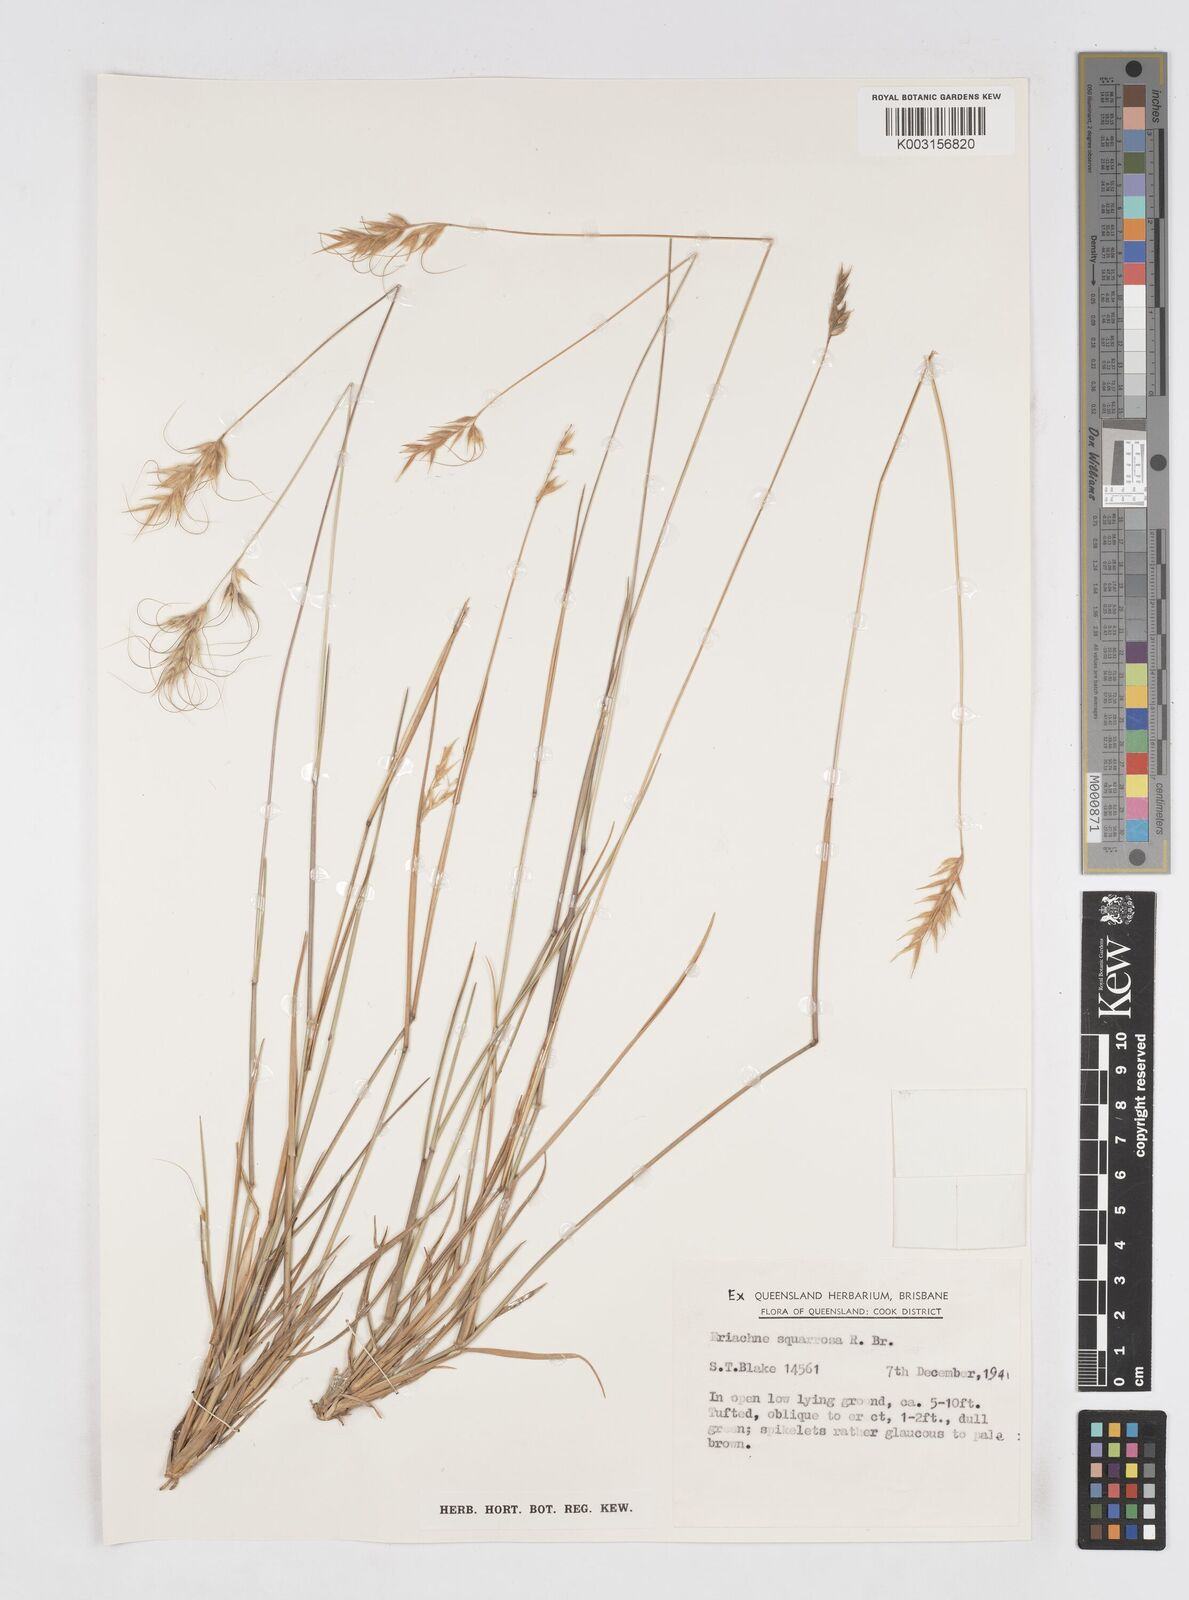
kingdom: Plantae
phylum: Tracheophyta
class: Liliopsida
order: Poales
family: Poaceae
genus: Eriachne
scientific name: Eriachne squarrosa
